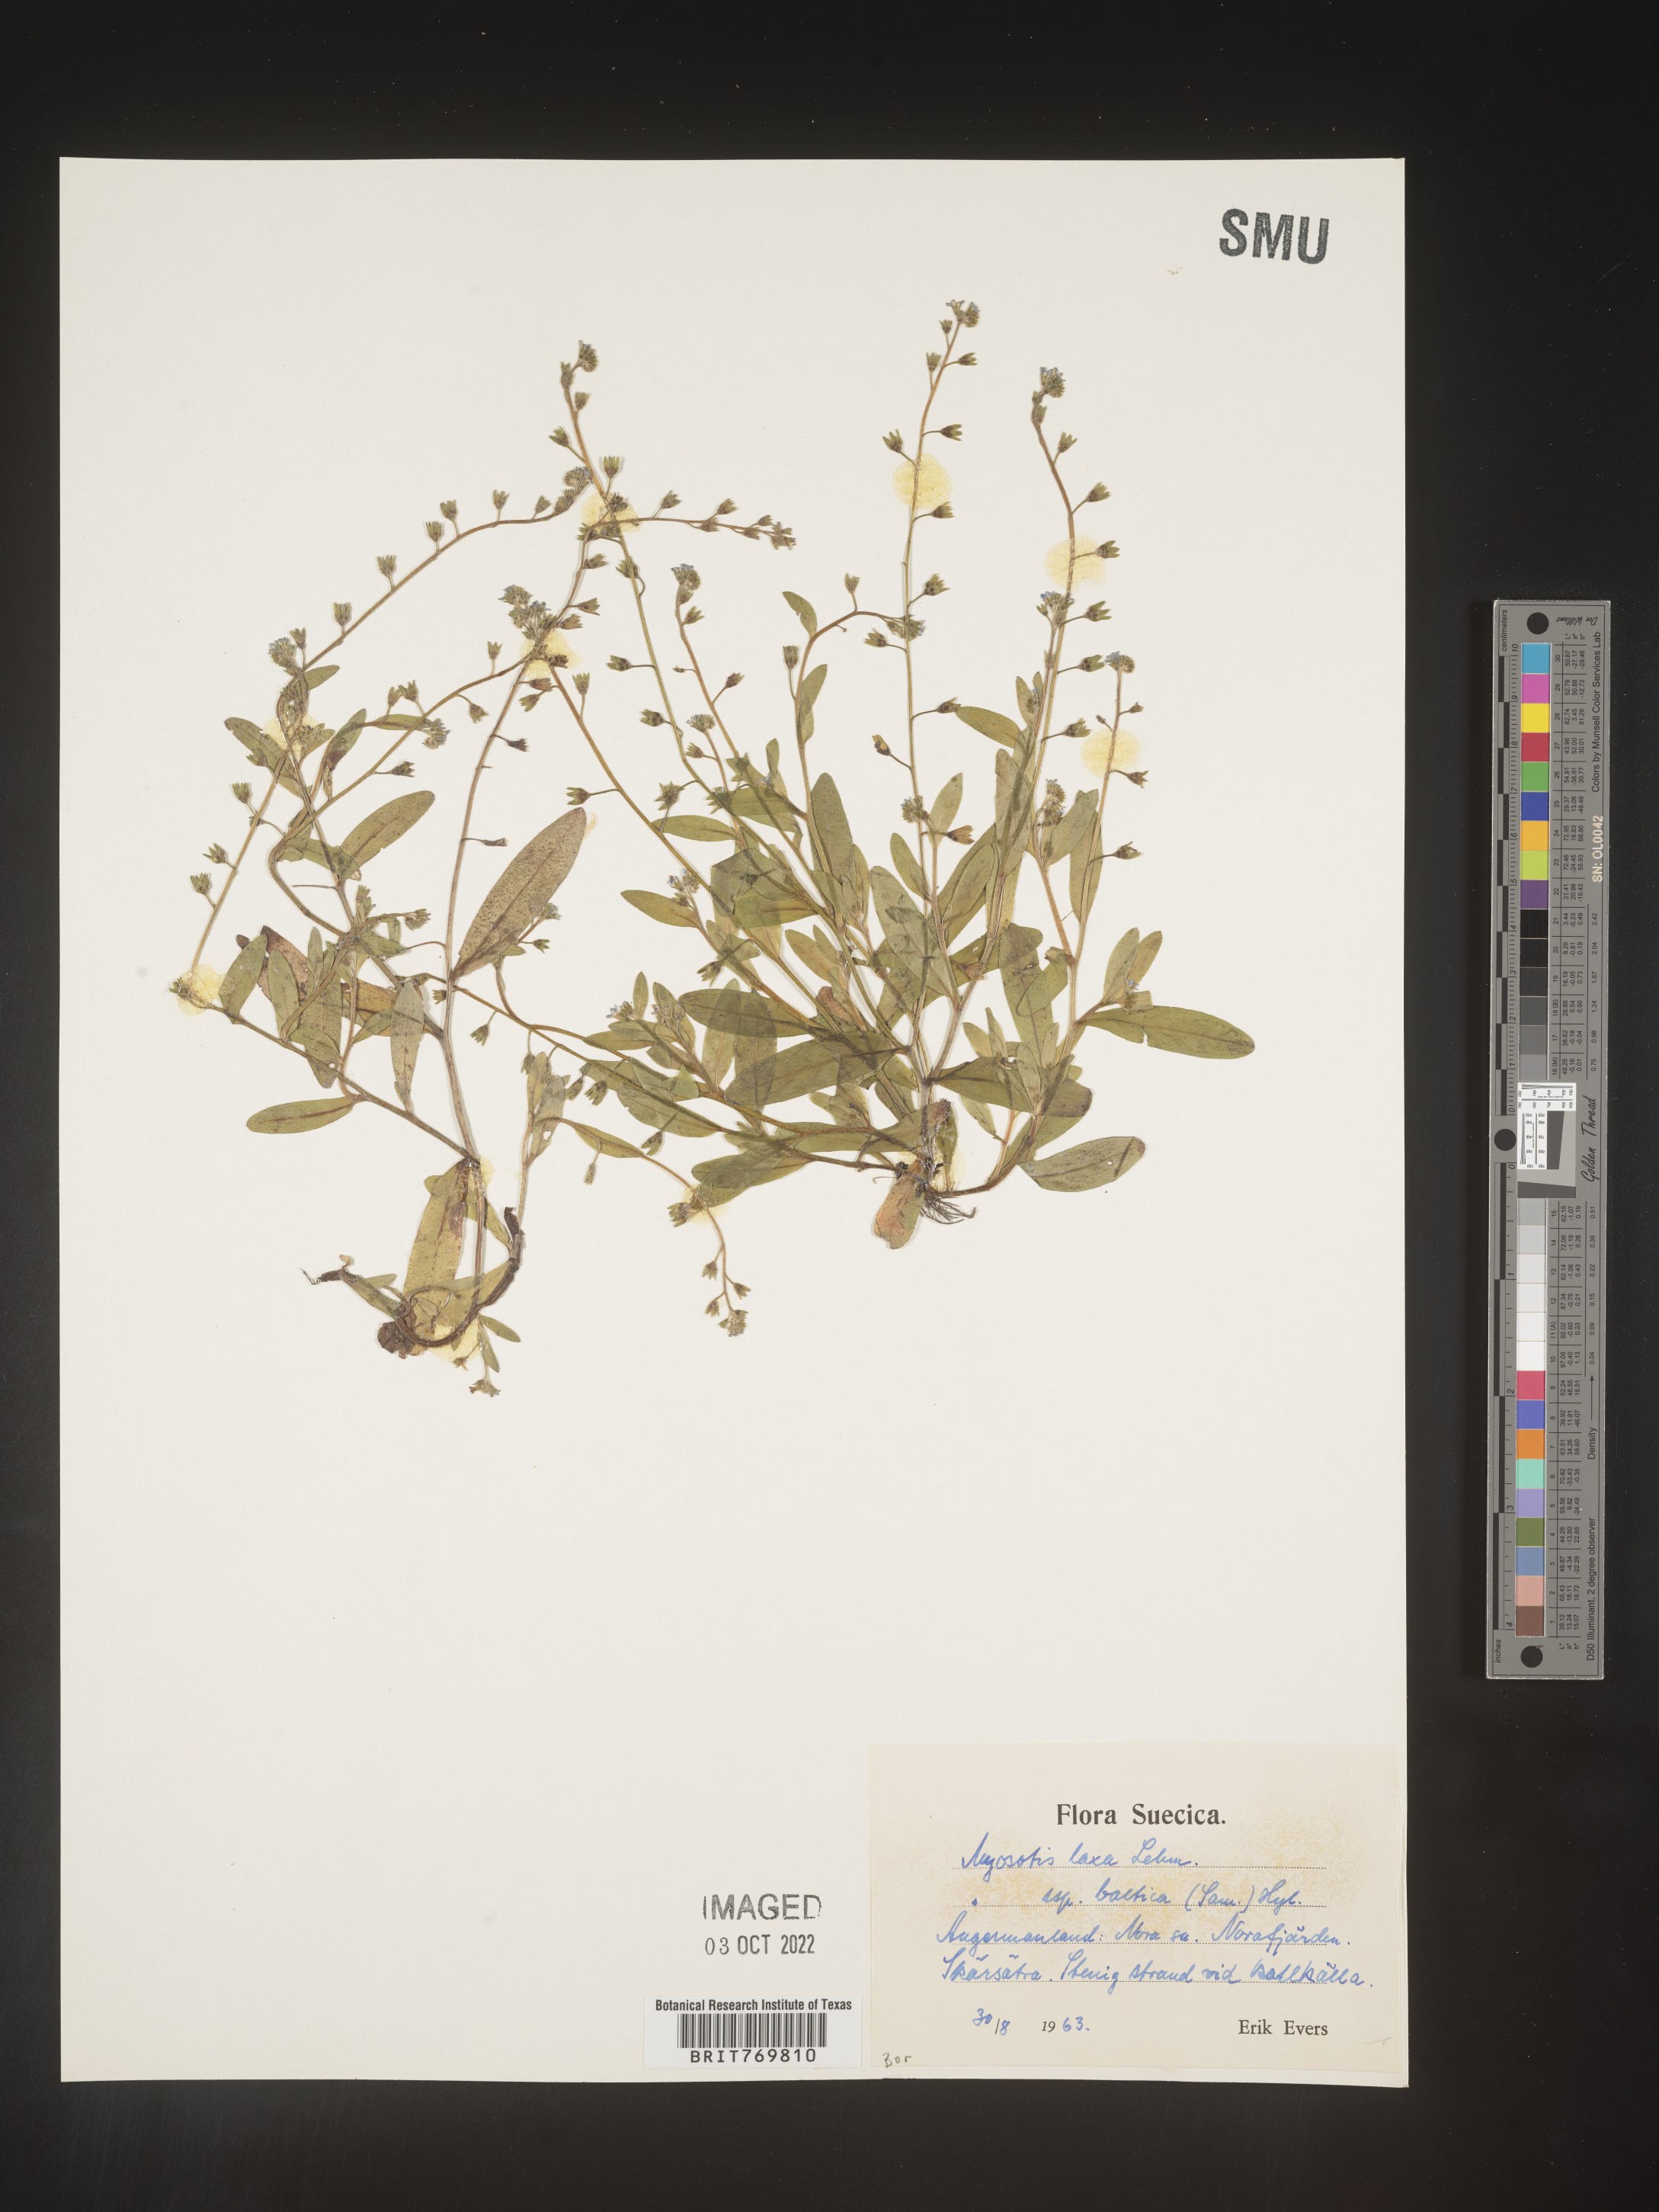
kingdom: Plantae
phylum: Tracheophyta
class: Magnoliopsida
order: Boraginales
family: Boraginaceae
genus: Myosotis
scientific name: Myosotis
